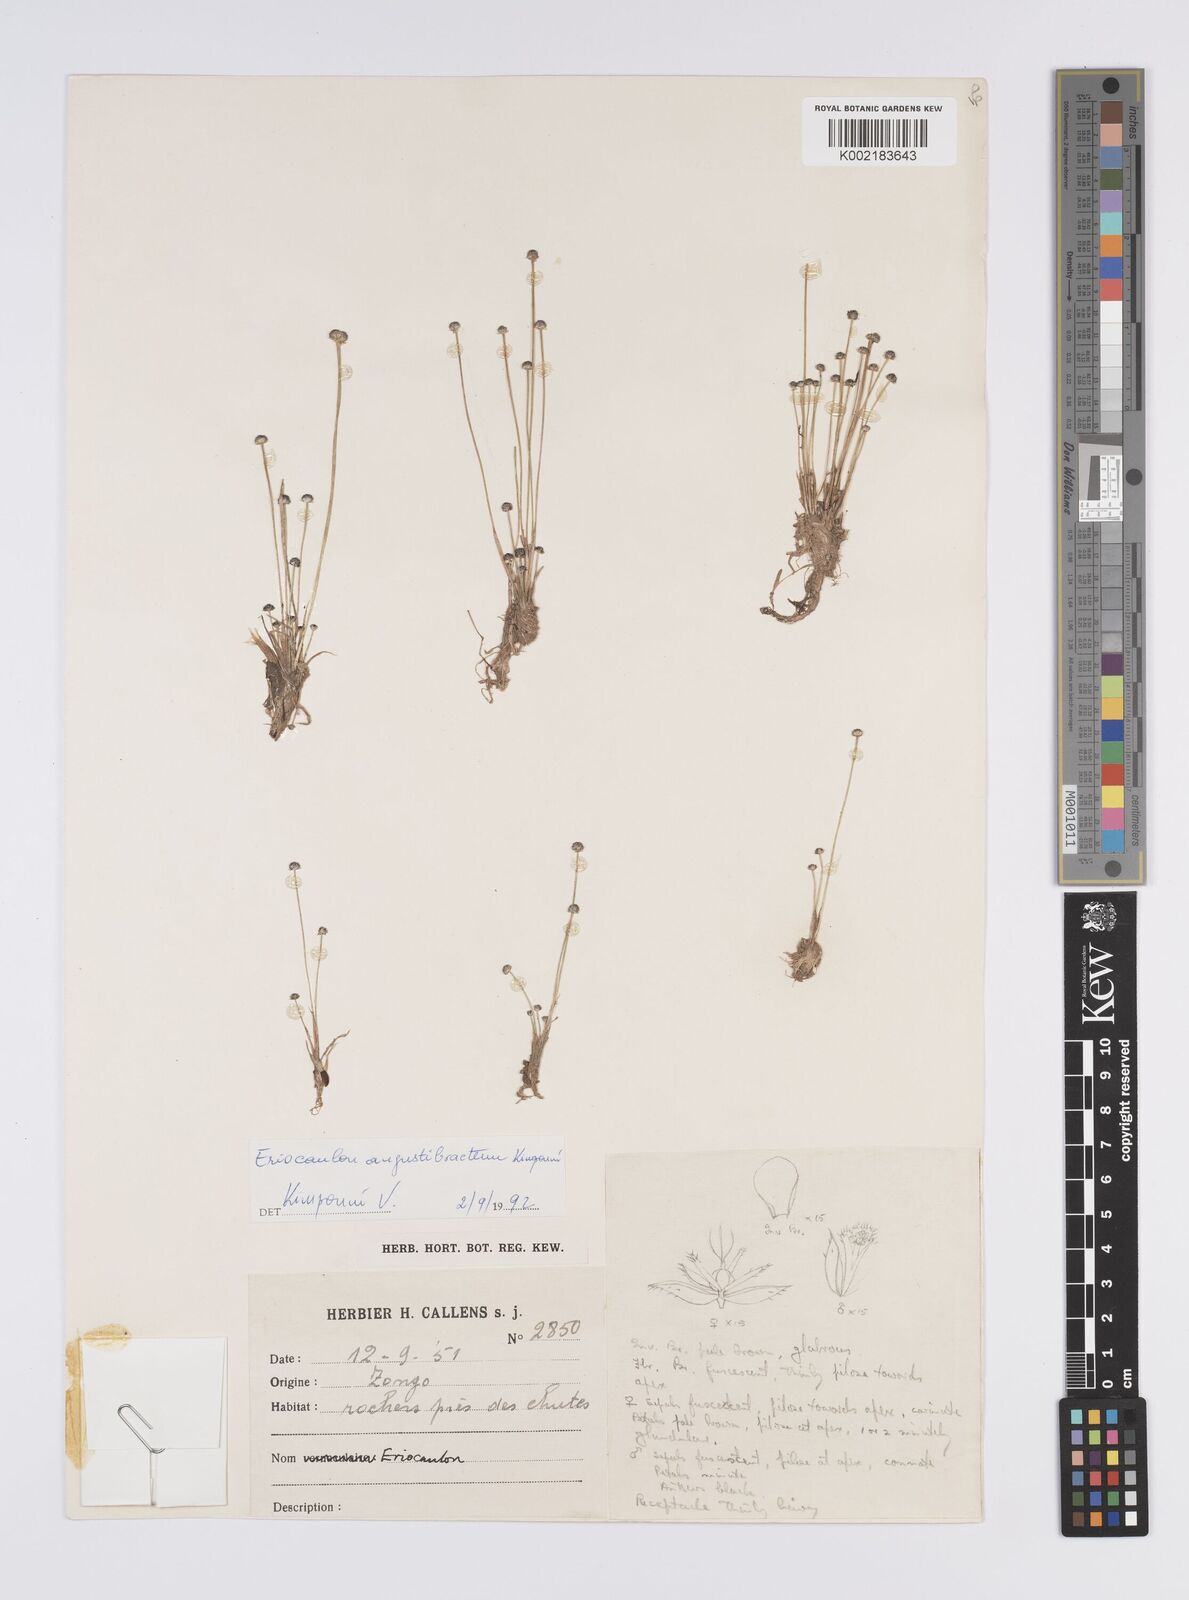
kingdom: Plantae
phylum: Tracheophyta
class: Liliopsida
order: Poales
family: Eriocaulaceae
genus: Eriocaulon
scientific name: Eriocaulon angustibracteum
